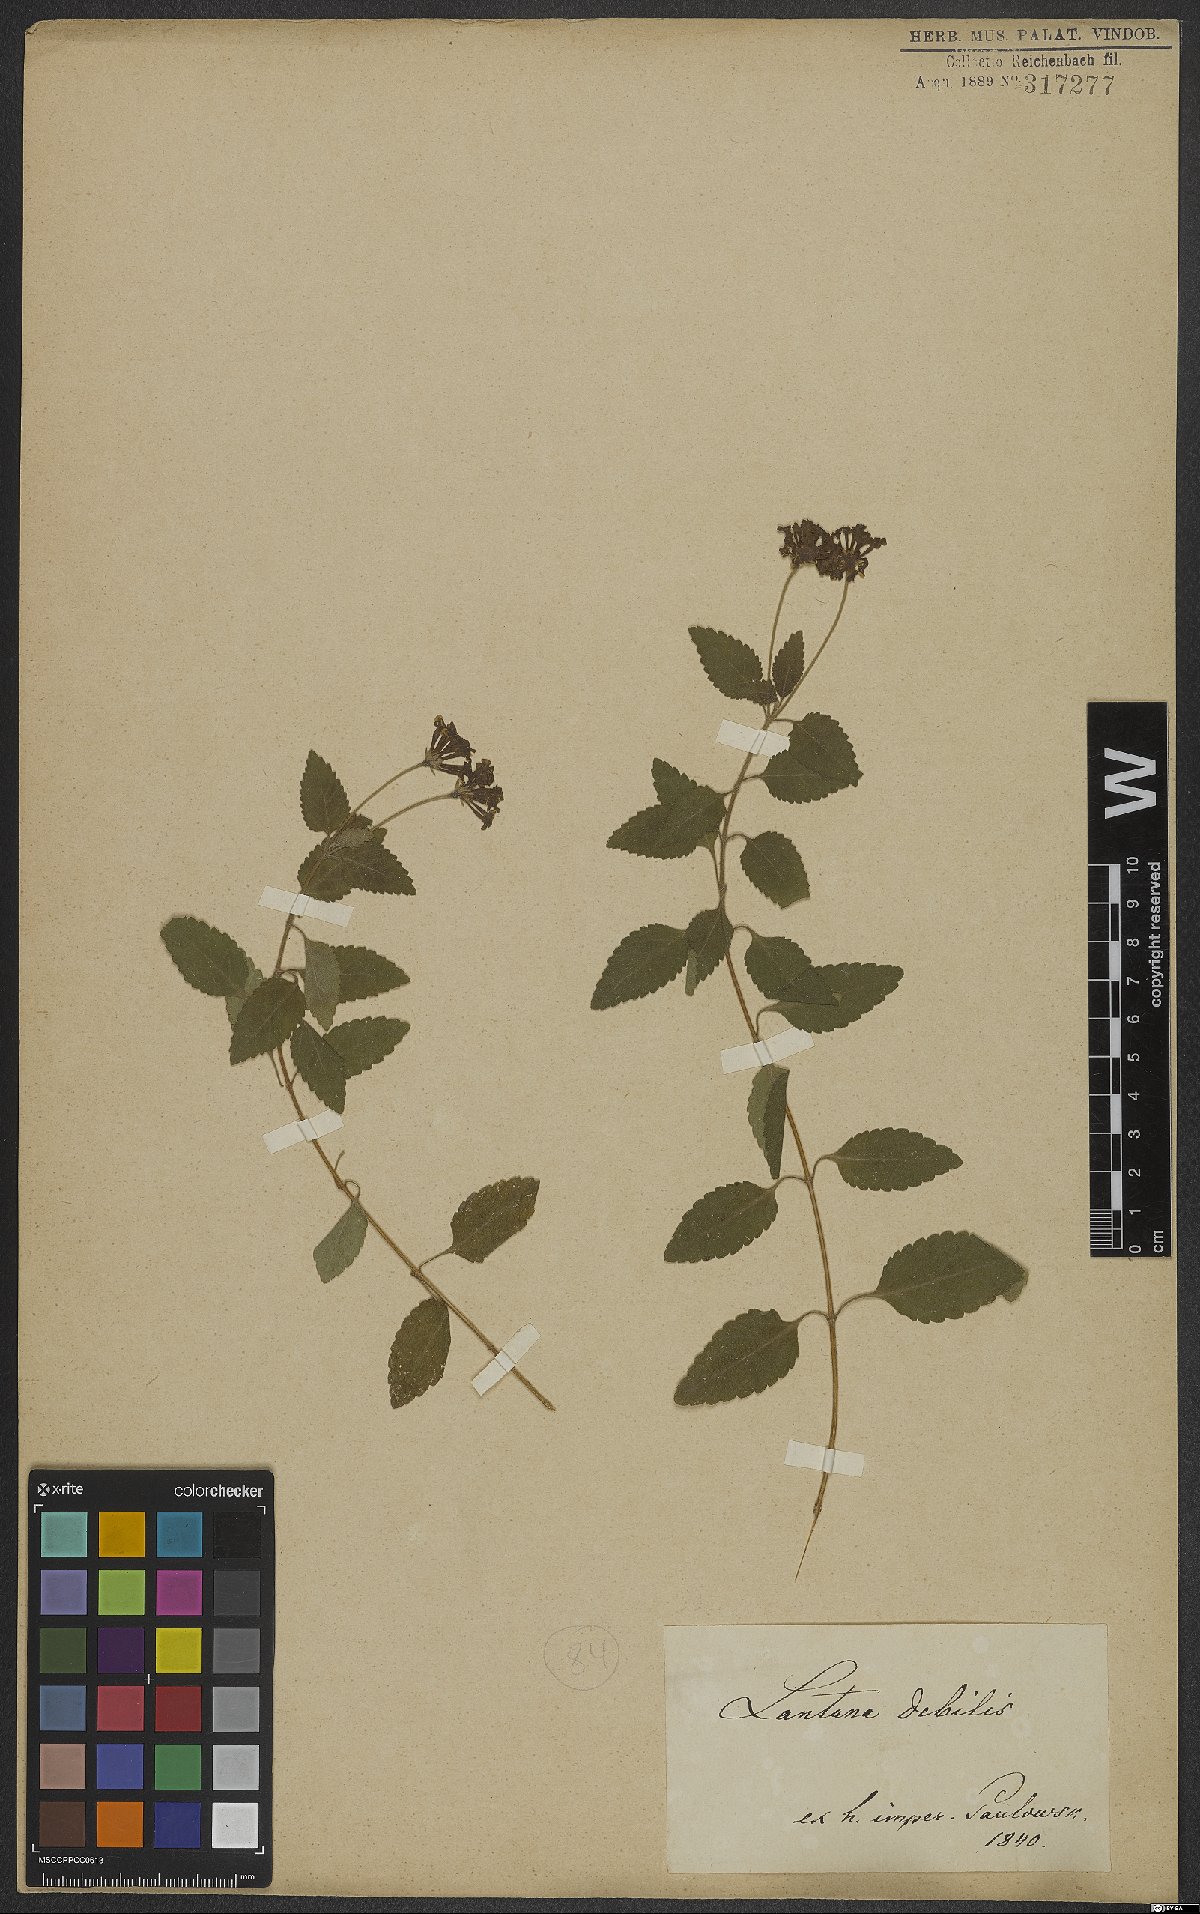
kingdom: Plantae
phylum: Tracheophyta
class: Magnoliopsida
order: Lamiales
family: Verbenaceae
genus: Lantana
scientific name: Lantana
